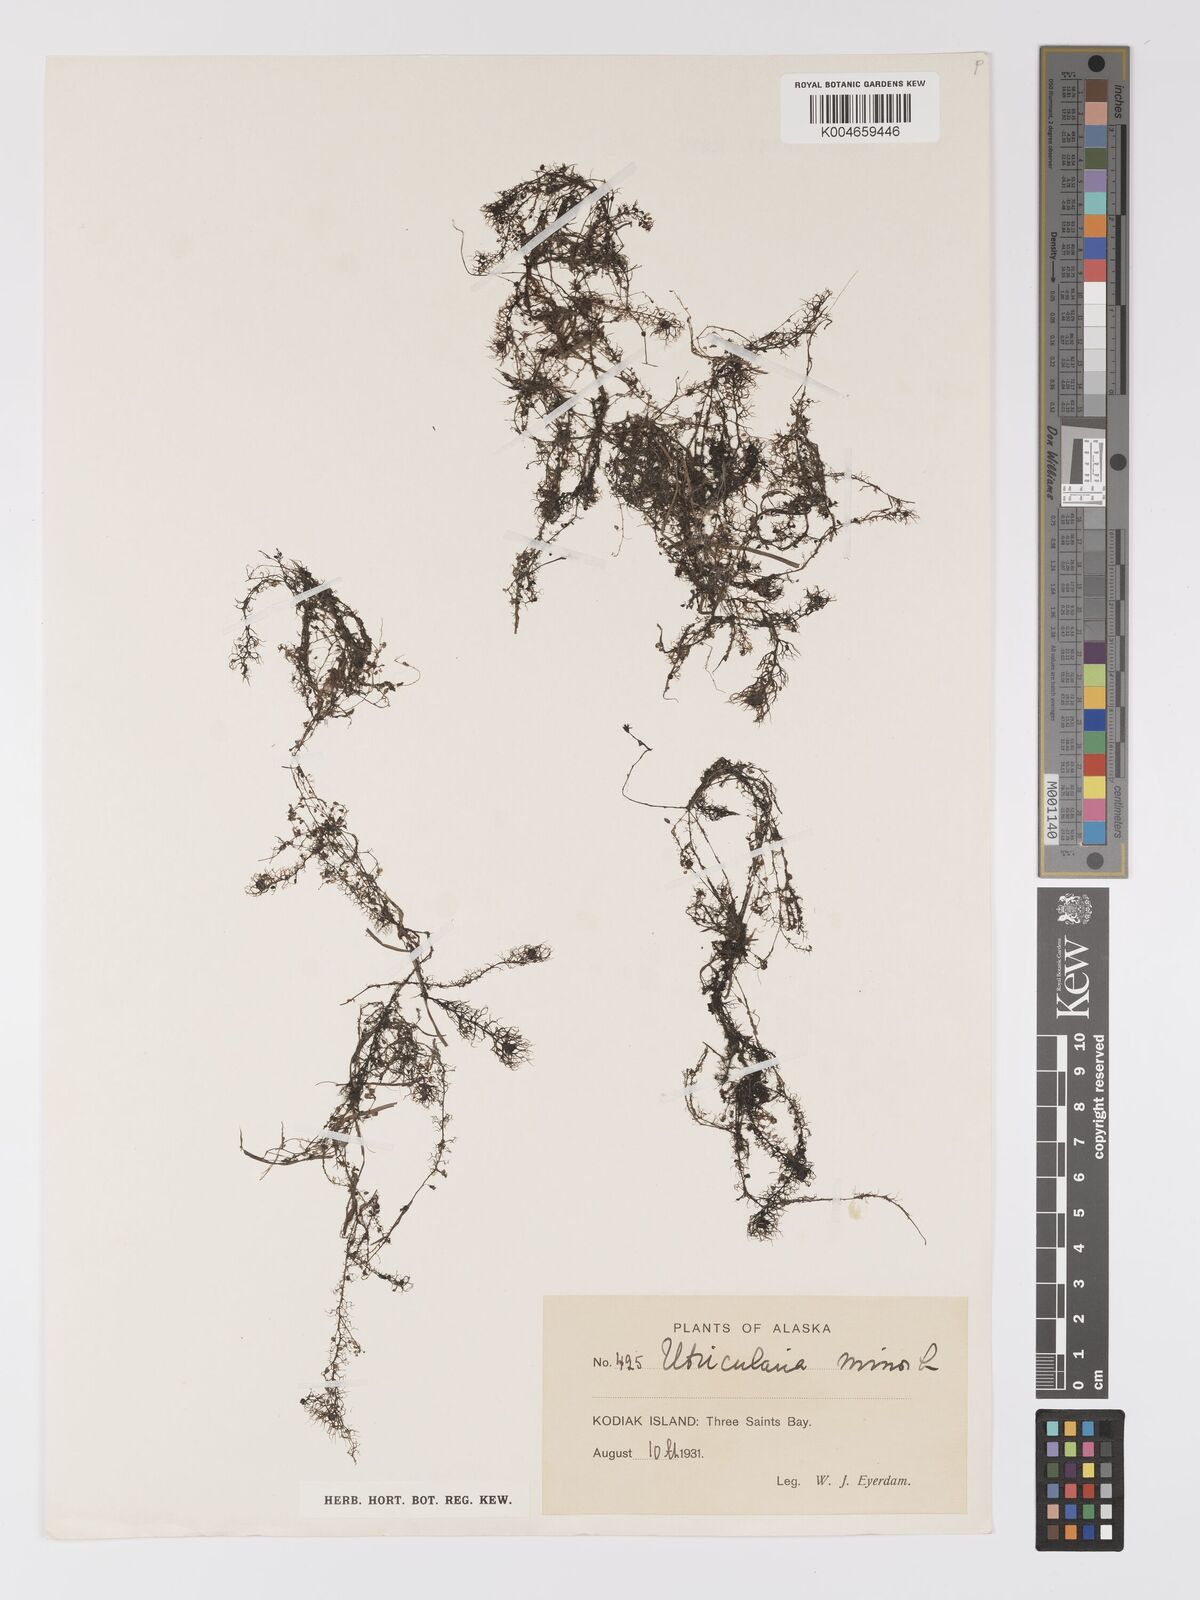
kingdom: Plantae
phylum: Tracheophyta
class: Magnoliopsida
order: Lamiales
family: Lentibulariaceae
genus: Utricularia
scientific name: Utricularia minor
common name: Lesser bladderwort
